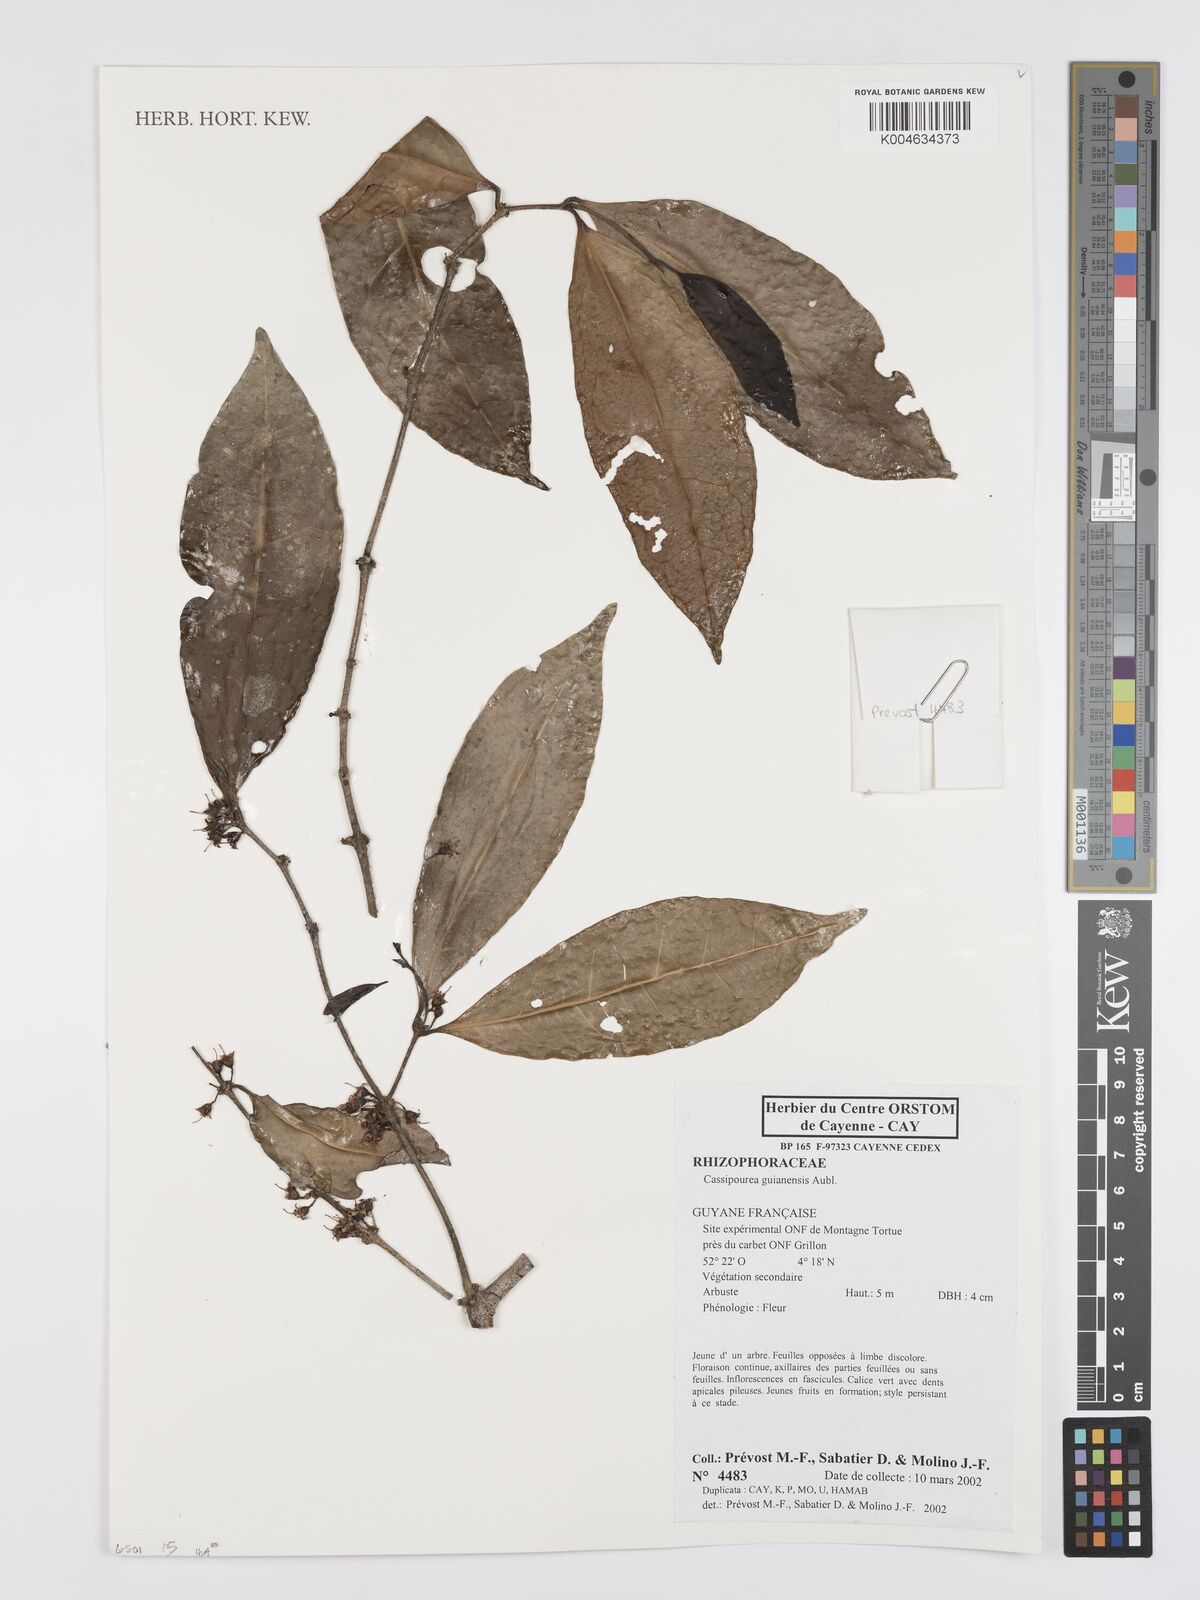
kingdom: Plantae
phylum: Tracheophyta
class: Magnoliopsida
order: Malpighiales
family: Rhizophoraceae
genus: Cassipourea
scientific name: Cassipourea guianensis
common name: Bastard waterwood
